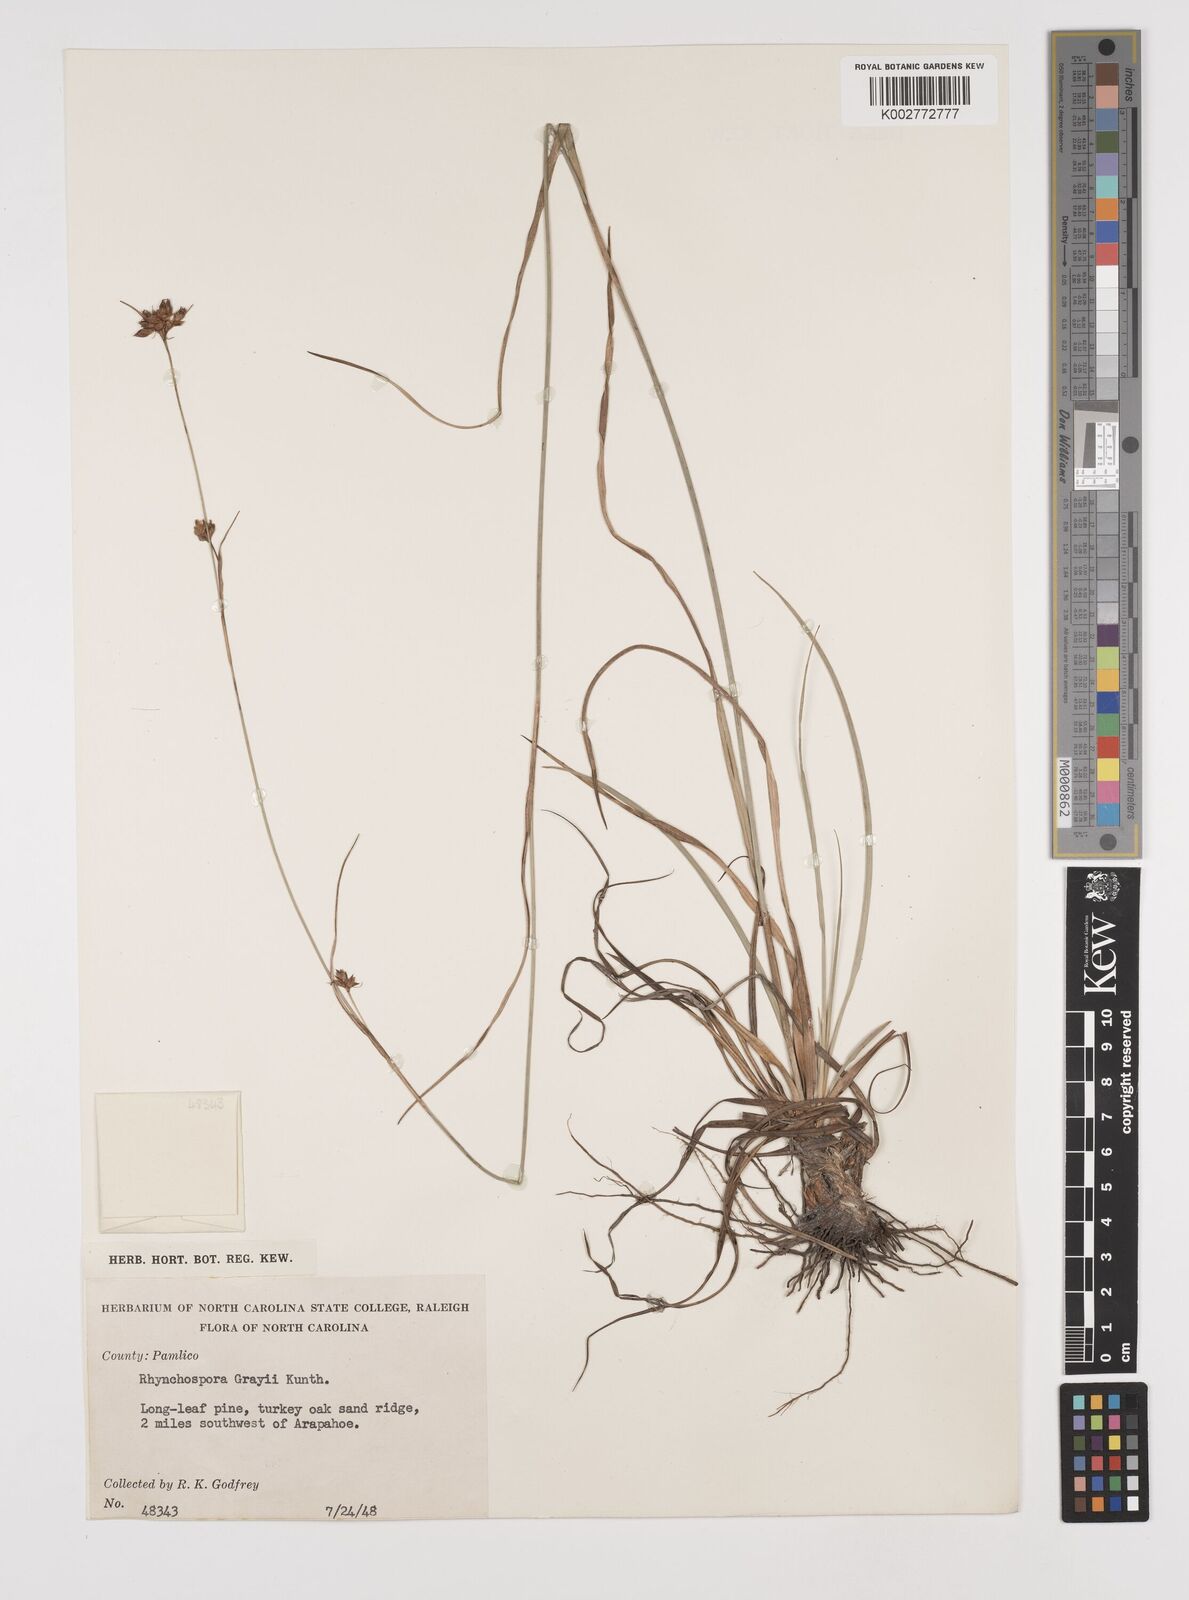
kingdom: Plantae
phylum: Tracheophyta
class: Liliopsida
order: Poales
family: Cyperaceae
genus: Rhynchospora
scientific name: Rhynchospora grayi
